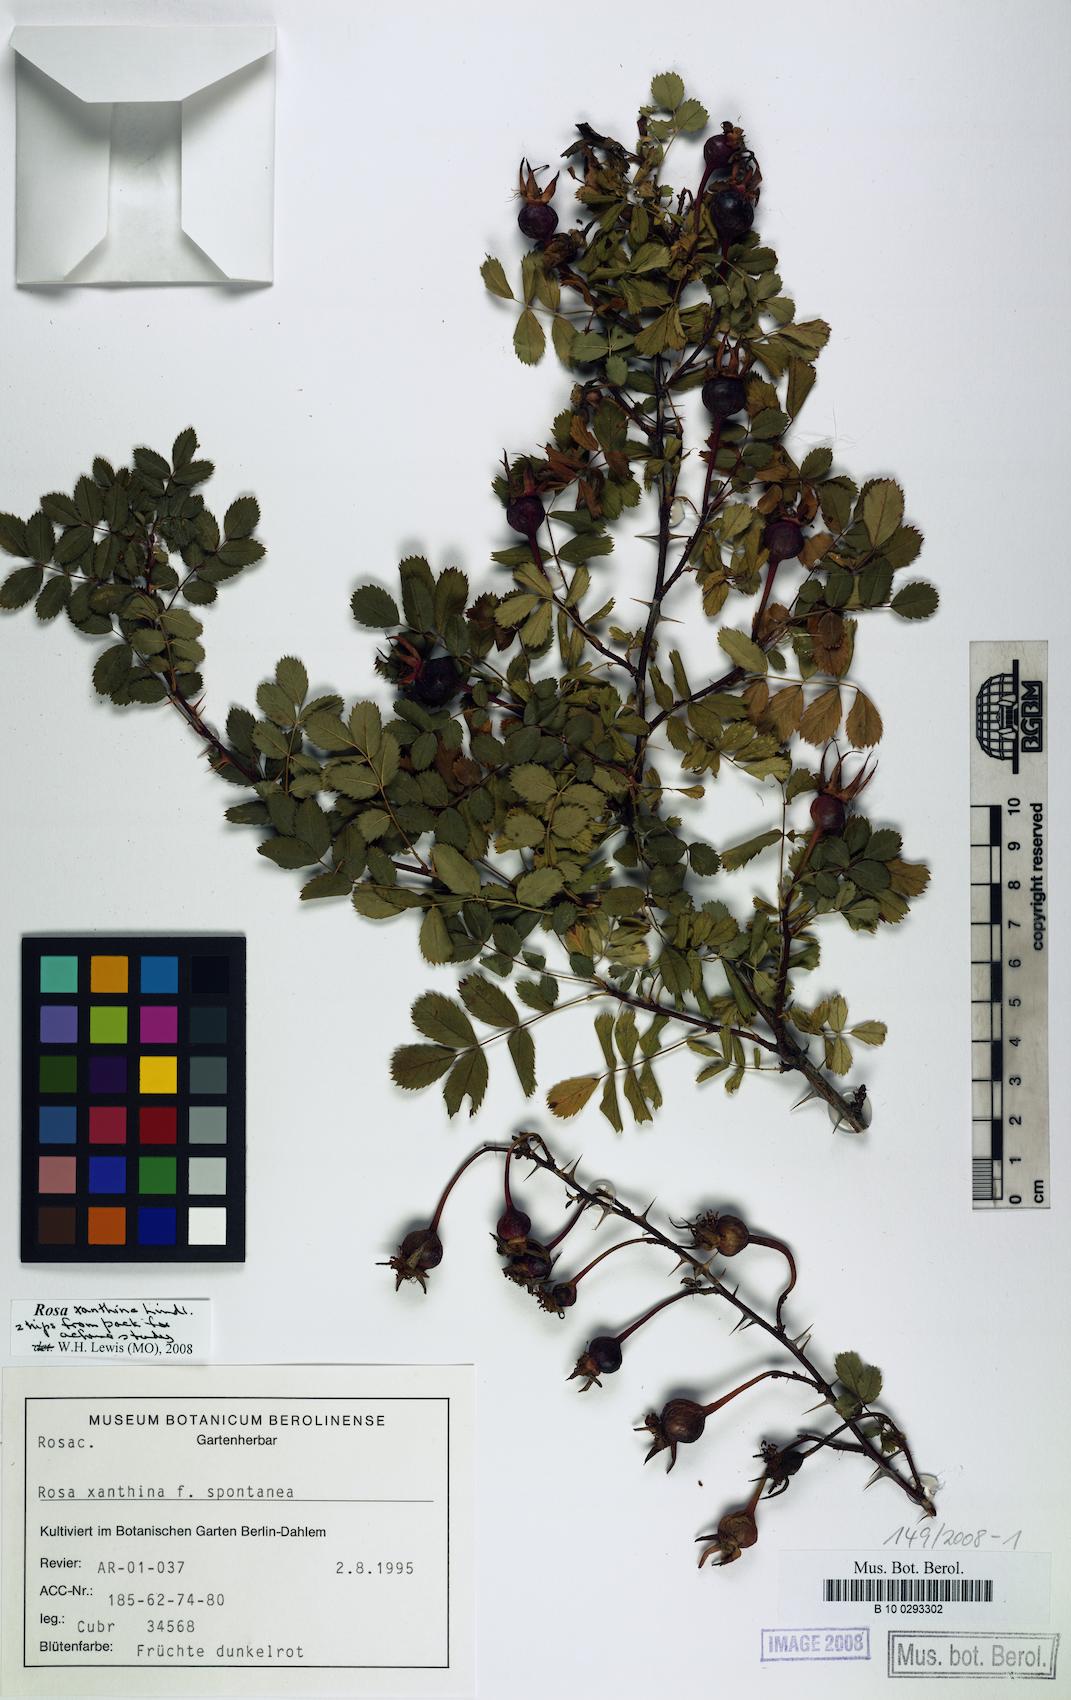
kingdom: Plantae
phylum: Tracheophyta
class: Magnoliopsida
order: Rosales
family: Rosaceae
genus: Rosa
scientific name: Rosa xanthina
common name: Yellow rose
